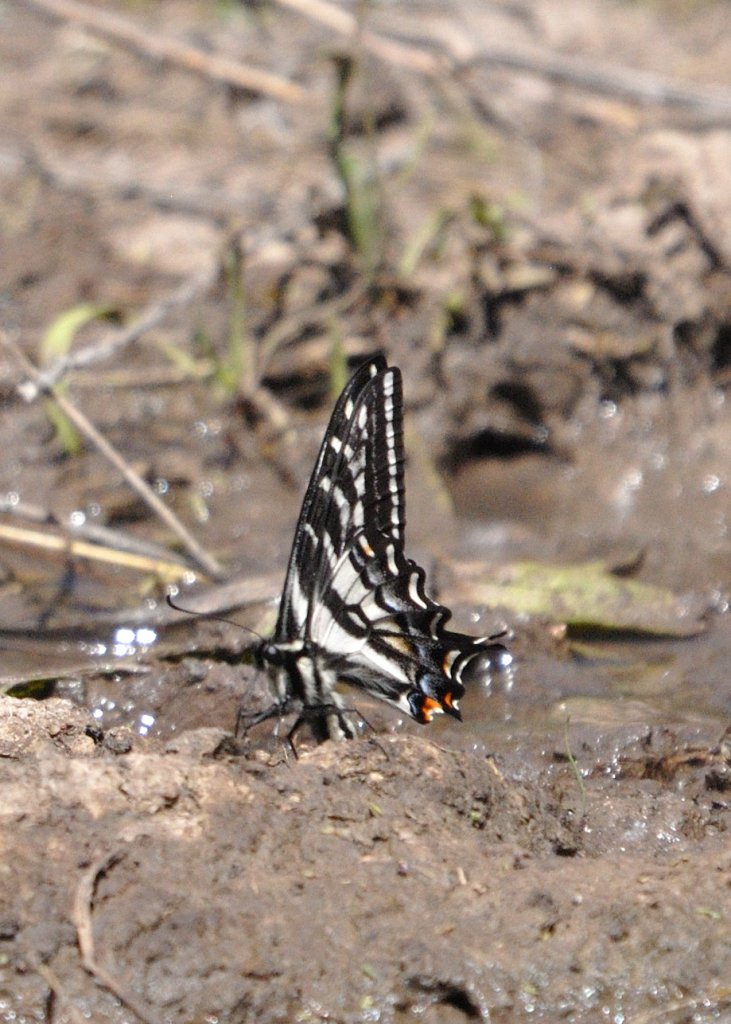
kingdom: Animalia
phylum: Arthropoda
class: Insecta
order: Lepidoptera
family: Papilionidae
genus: Pterourus
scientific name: Pterourus eurymedon
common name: Pale Swallowtail
